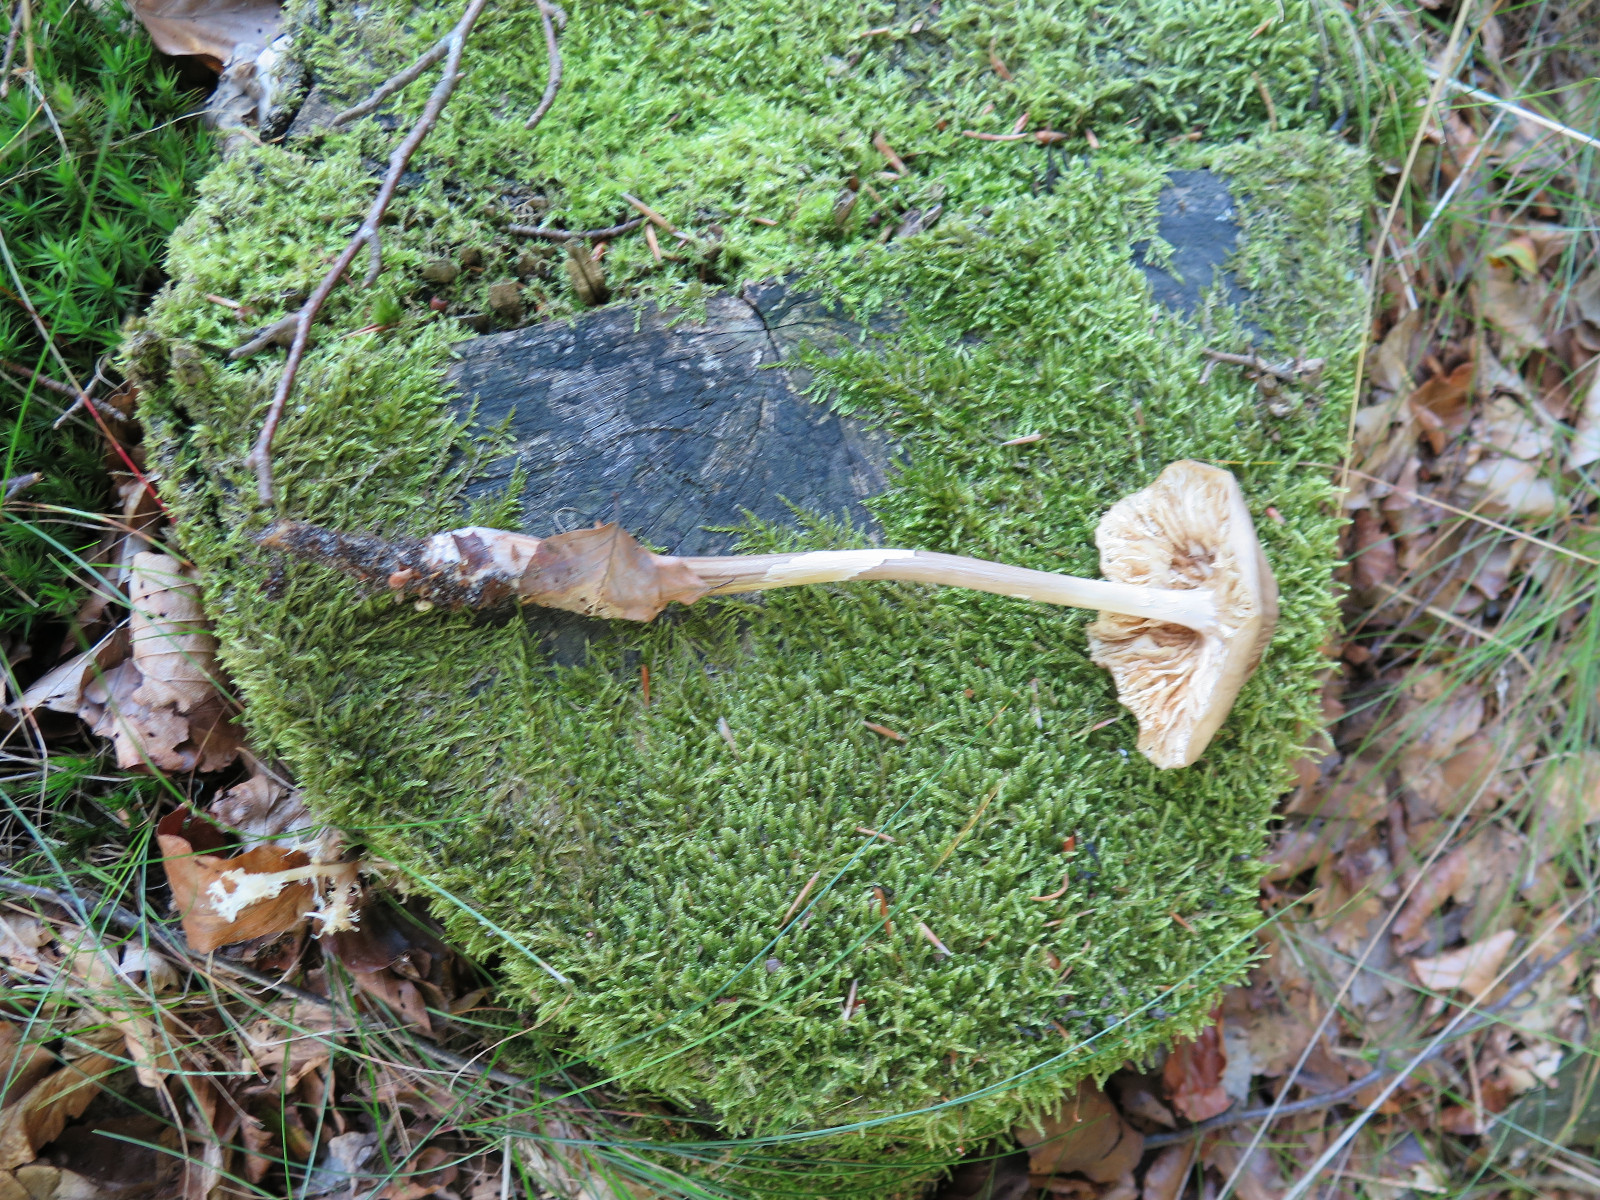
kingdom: Fungi
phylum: Basidiomycota
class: Agaricomycetes
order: Agaricales
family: Physalacriaceae
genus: Hymenopellis
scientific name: Hymenopellis radicata
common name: almindelig pælerodshat
